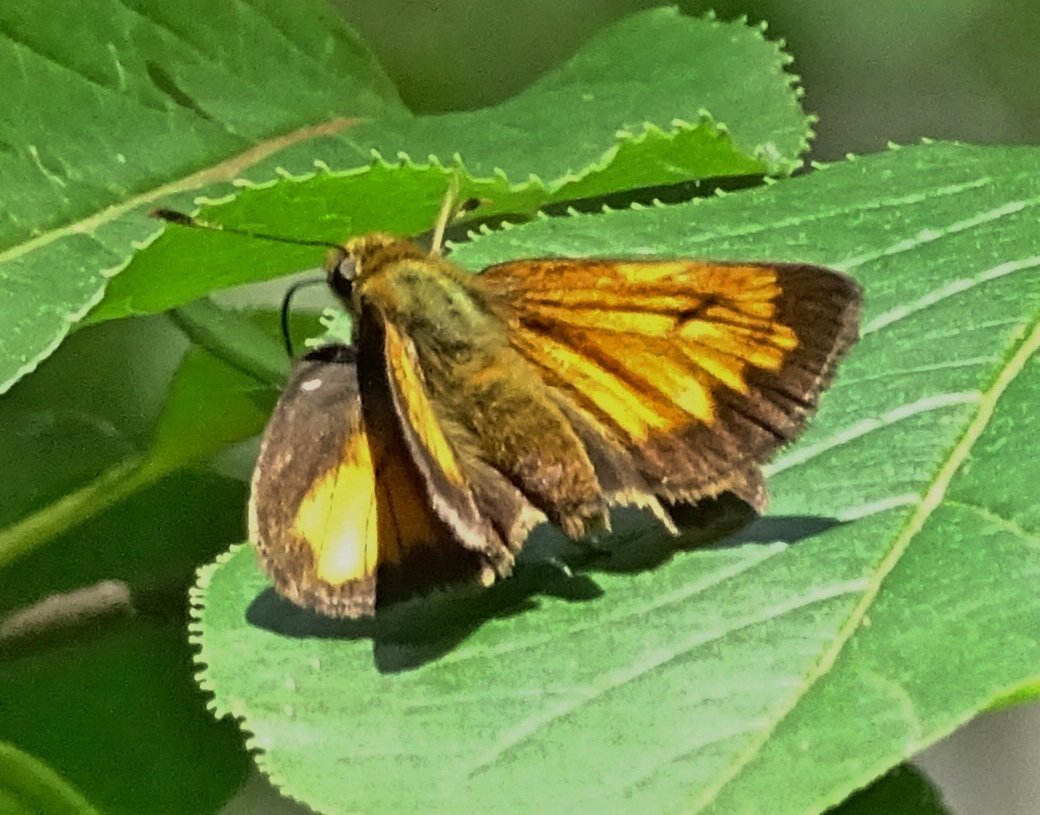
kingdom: Animalia
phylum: Arthropoda
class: Insecta
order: Lepidoptera
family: Hesperiidae
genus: Lon
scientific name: Lon hobomok
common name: Hobomok Skipper
